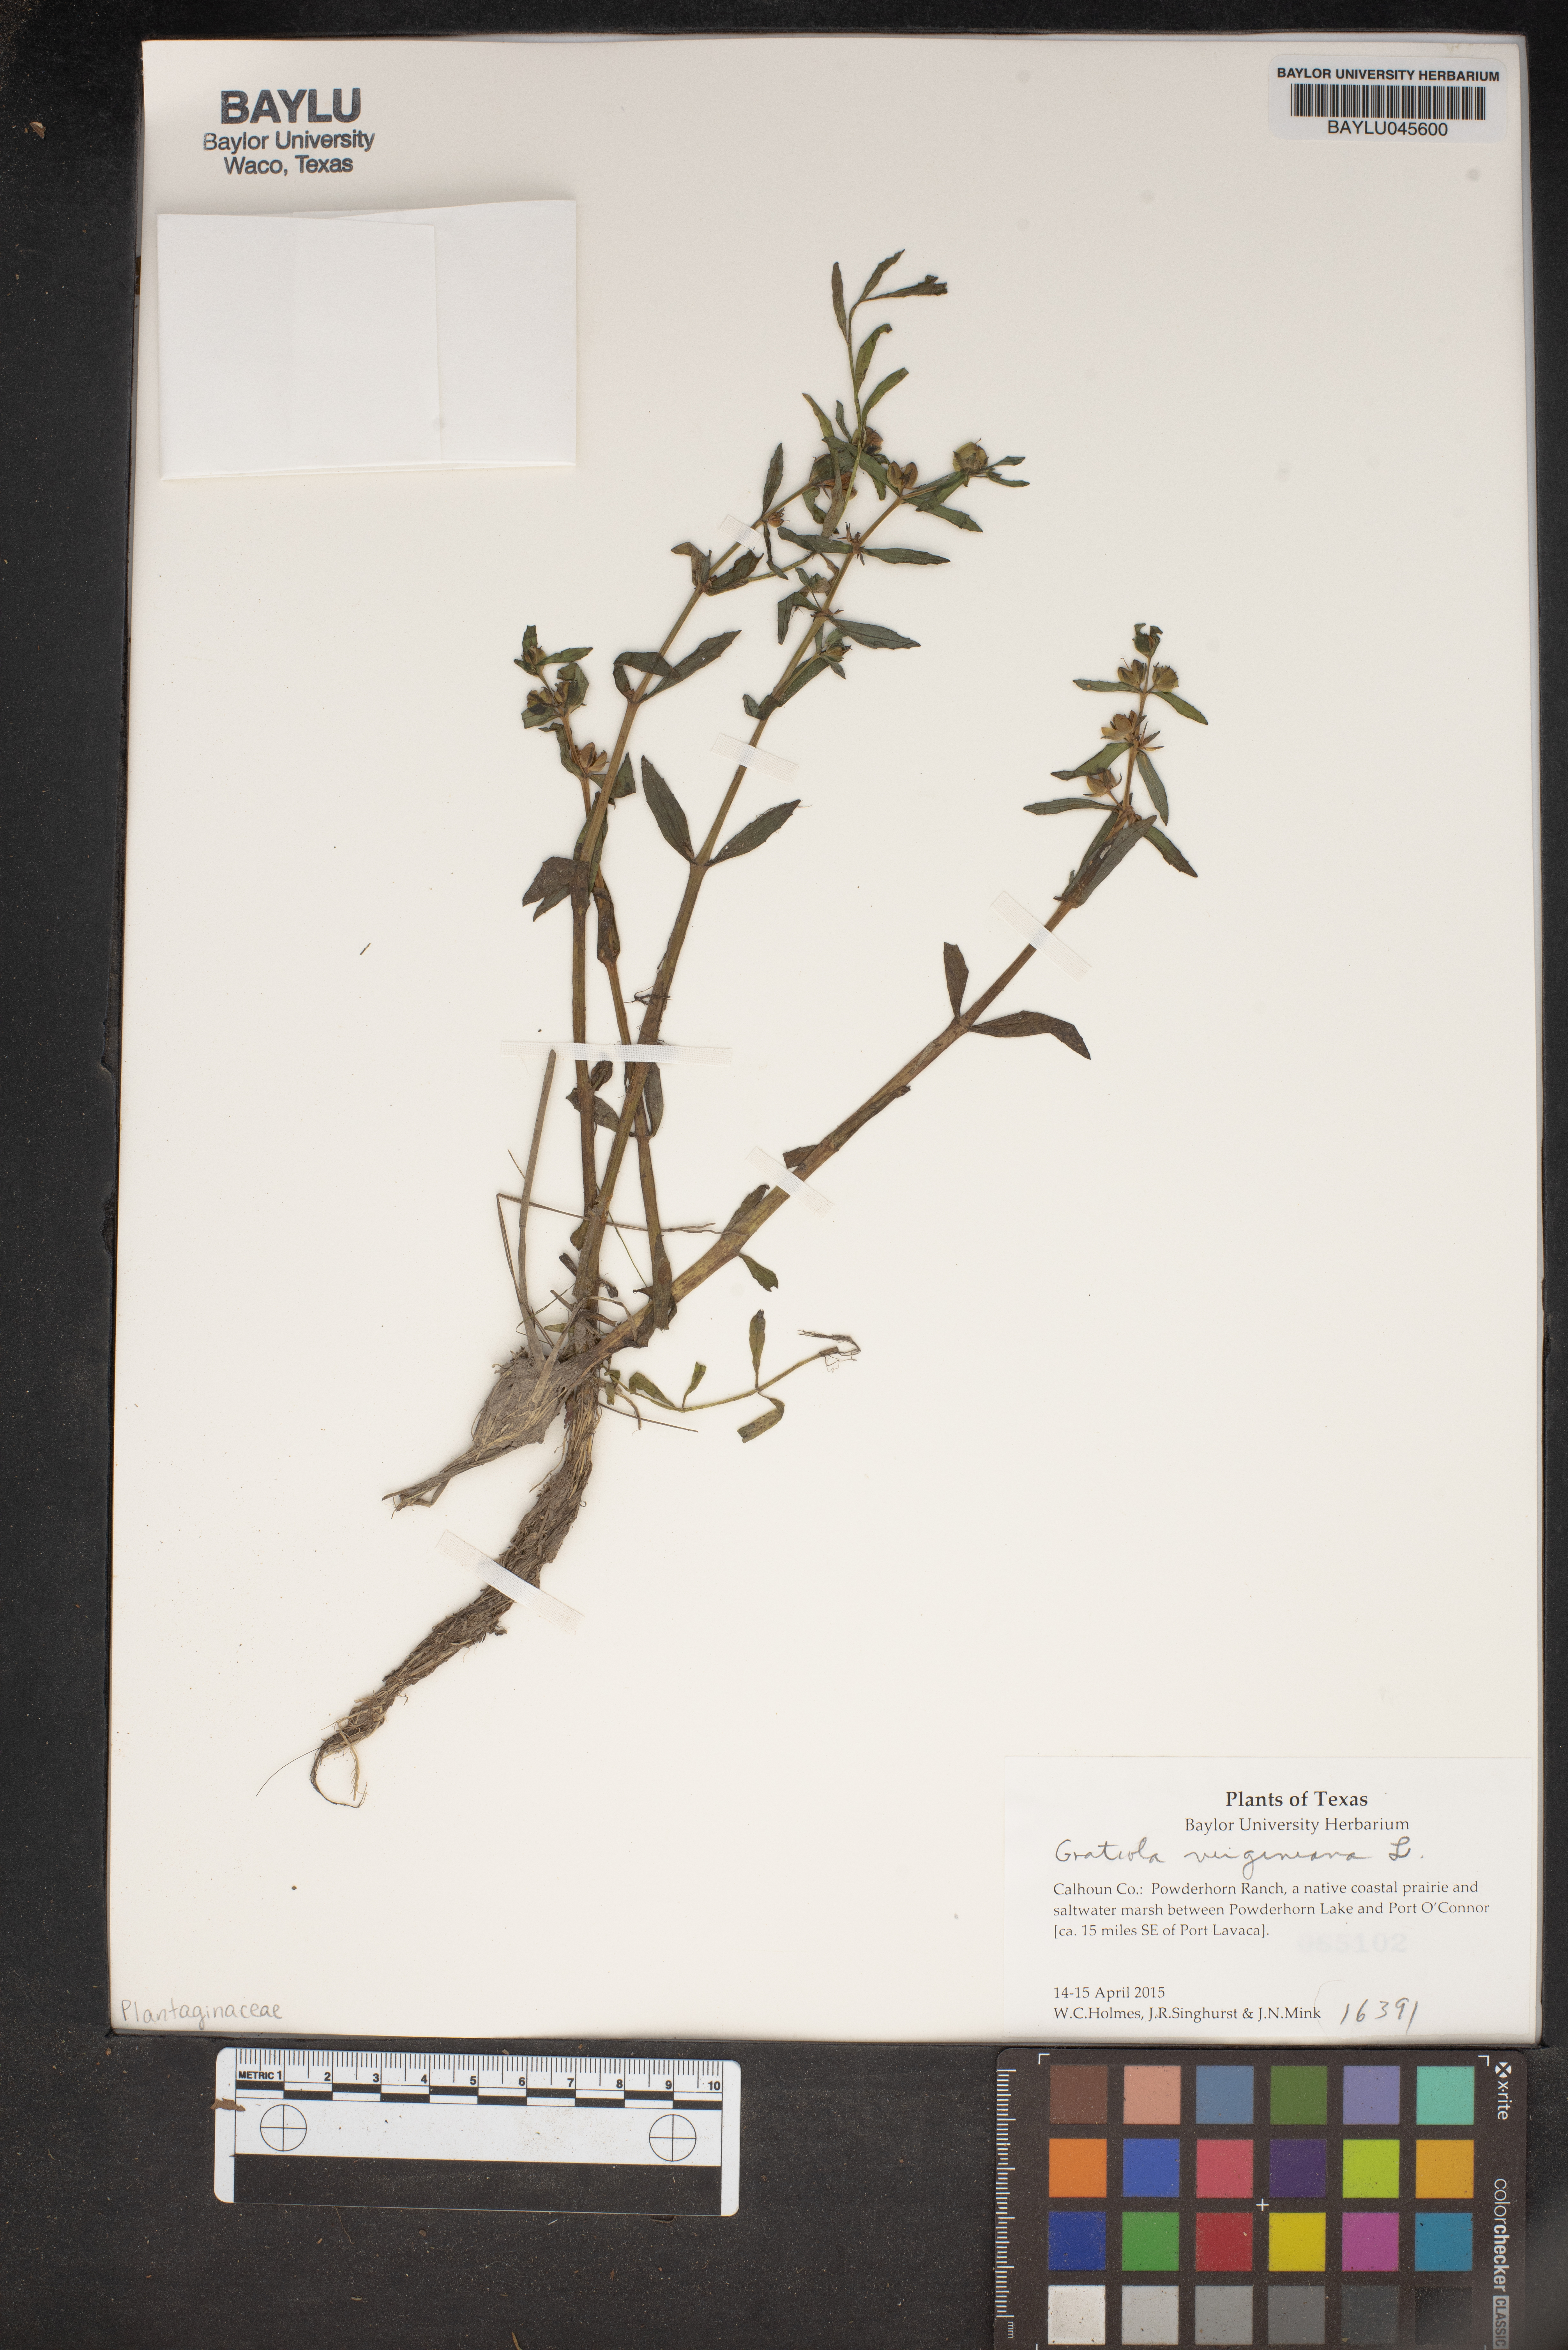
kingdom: Plantae
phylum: Tracheophyta
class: Magnoliopsida
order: Lamiales
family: Plantaginaceae
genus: Gratiola
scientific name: Gratiola virginiana
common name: Roundfruit hedgehyssop
